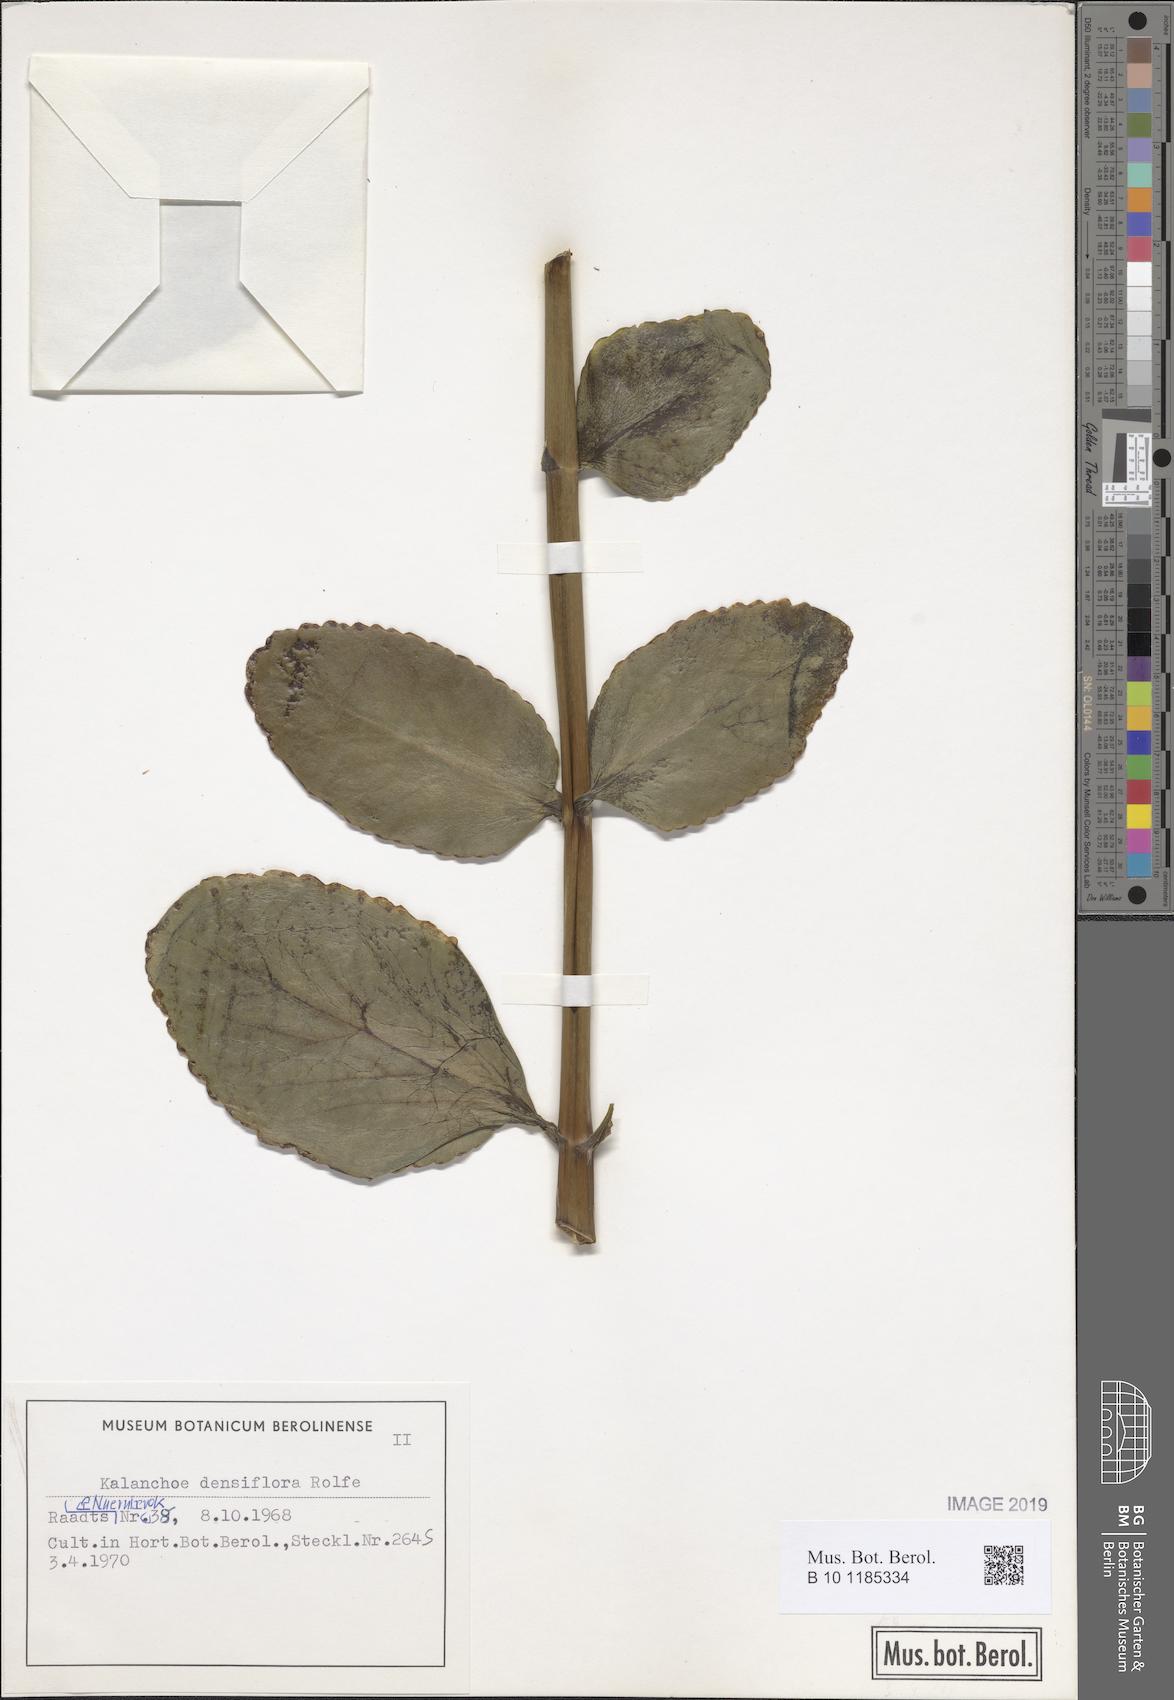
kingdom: Plantae
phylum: Tracheophyta
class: Magnoliopsida
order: Saxifragales
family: Crassulaceae
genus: Kalanchoe
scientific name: Kalanchoe densiflora
